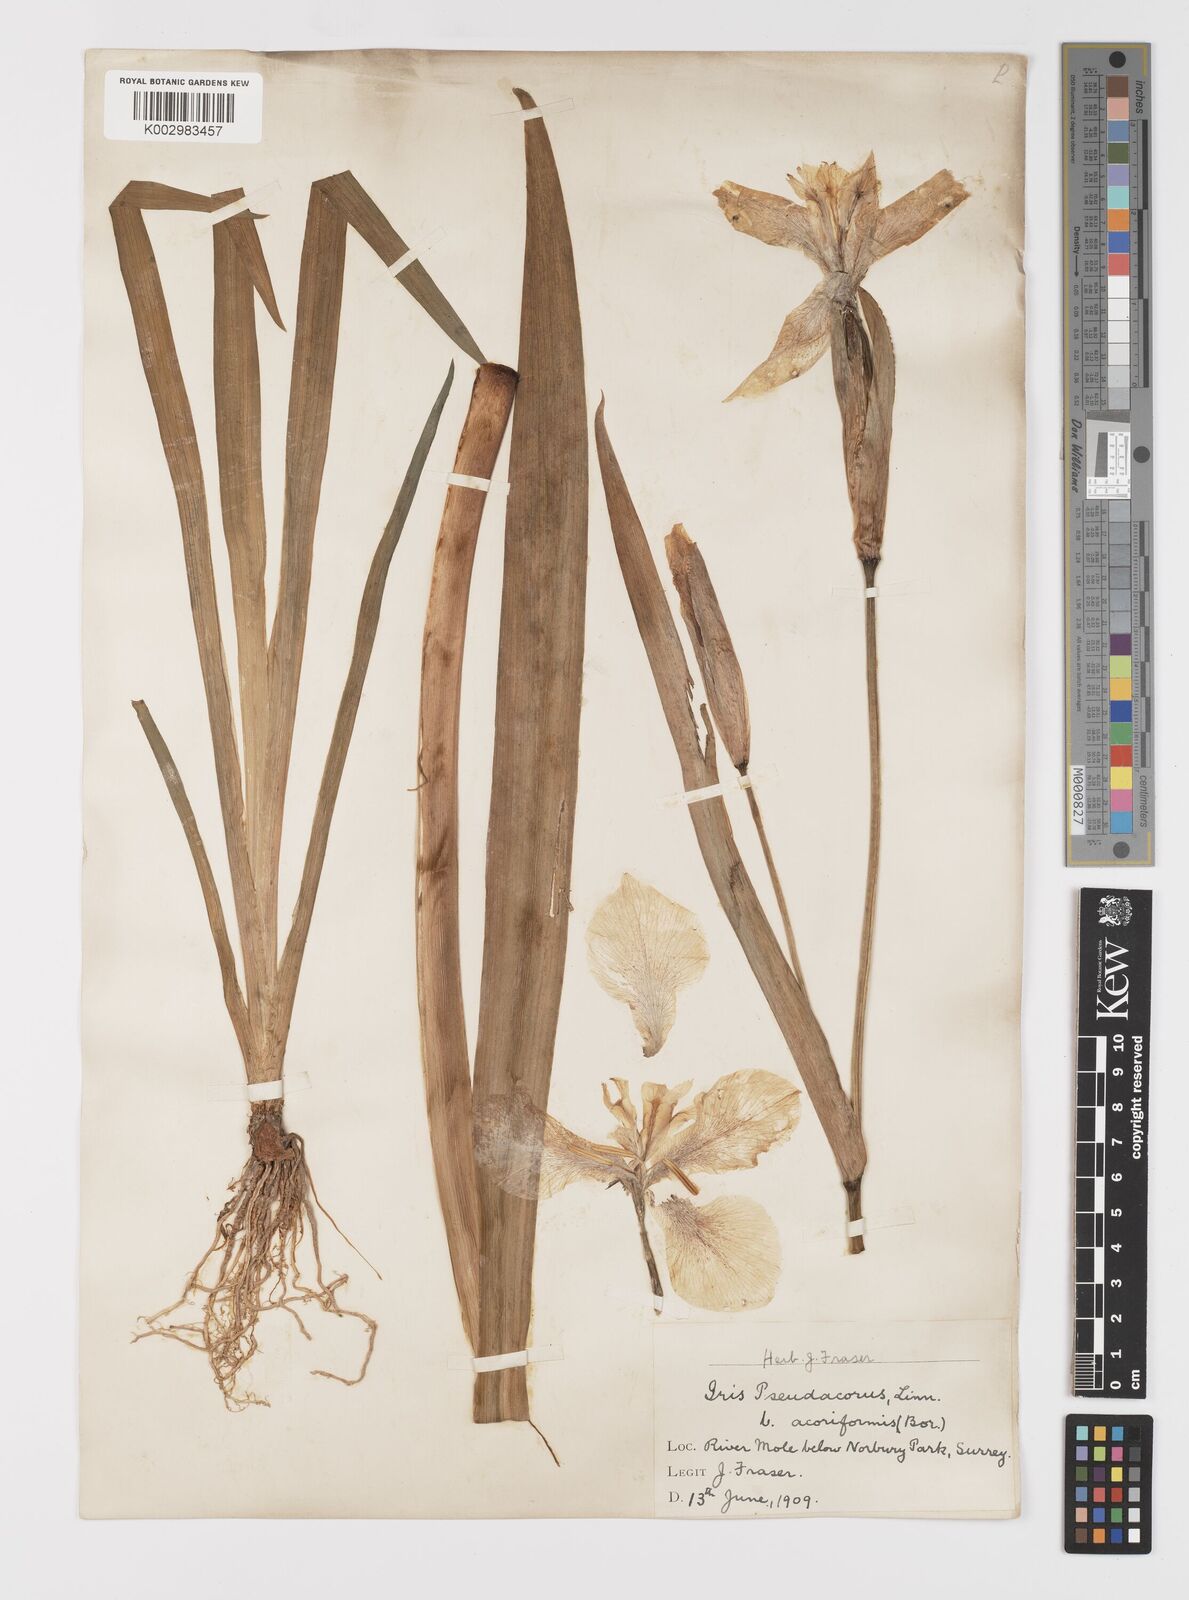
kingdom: Plantae
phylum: Tracheophyta
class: Liliopsida
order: Asparagales
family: Iridaceae
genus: Iris
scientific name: Iris pseudacorus
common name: Yellow flag
